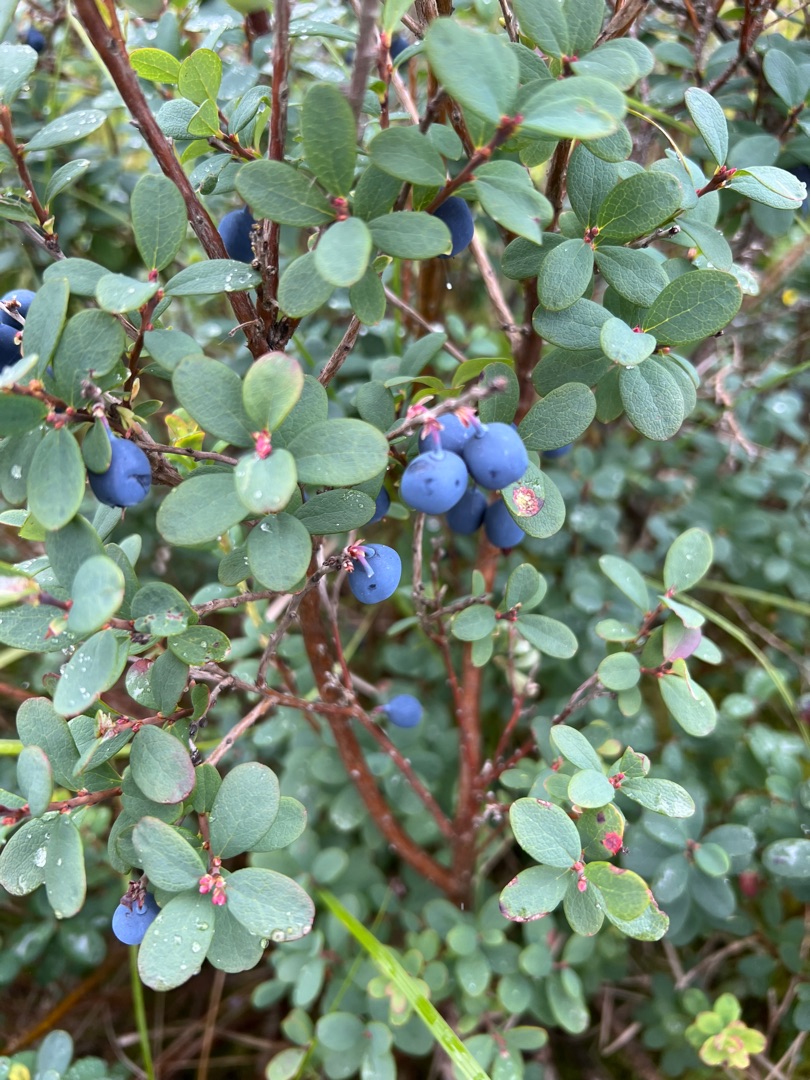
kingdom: Plantae
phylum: Tracheophyta
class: Magnoliopsida
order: Ericales
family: Ericaceae
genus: Vaccinium
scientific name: Vaccinium uliginosum
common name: Mose-bølle
